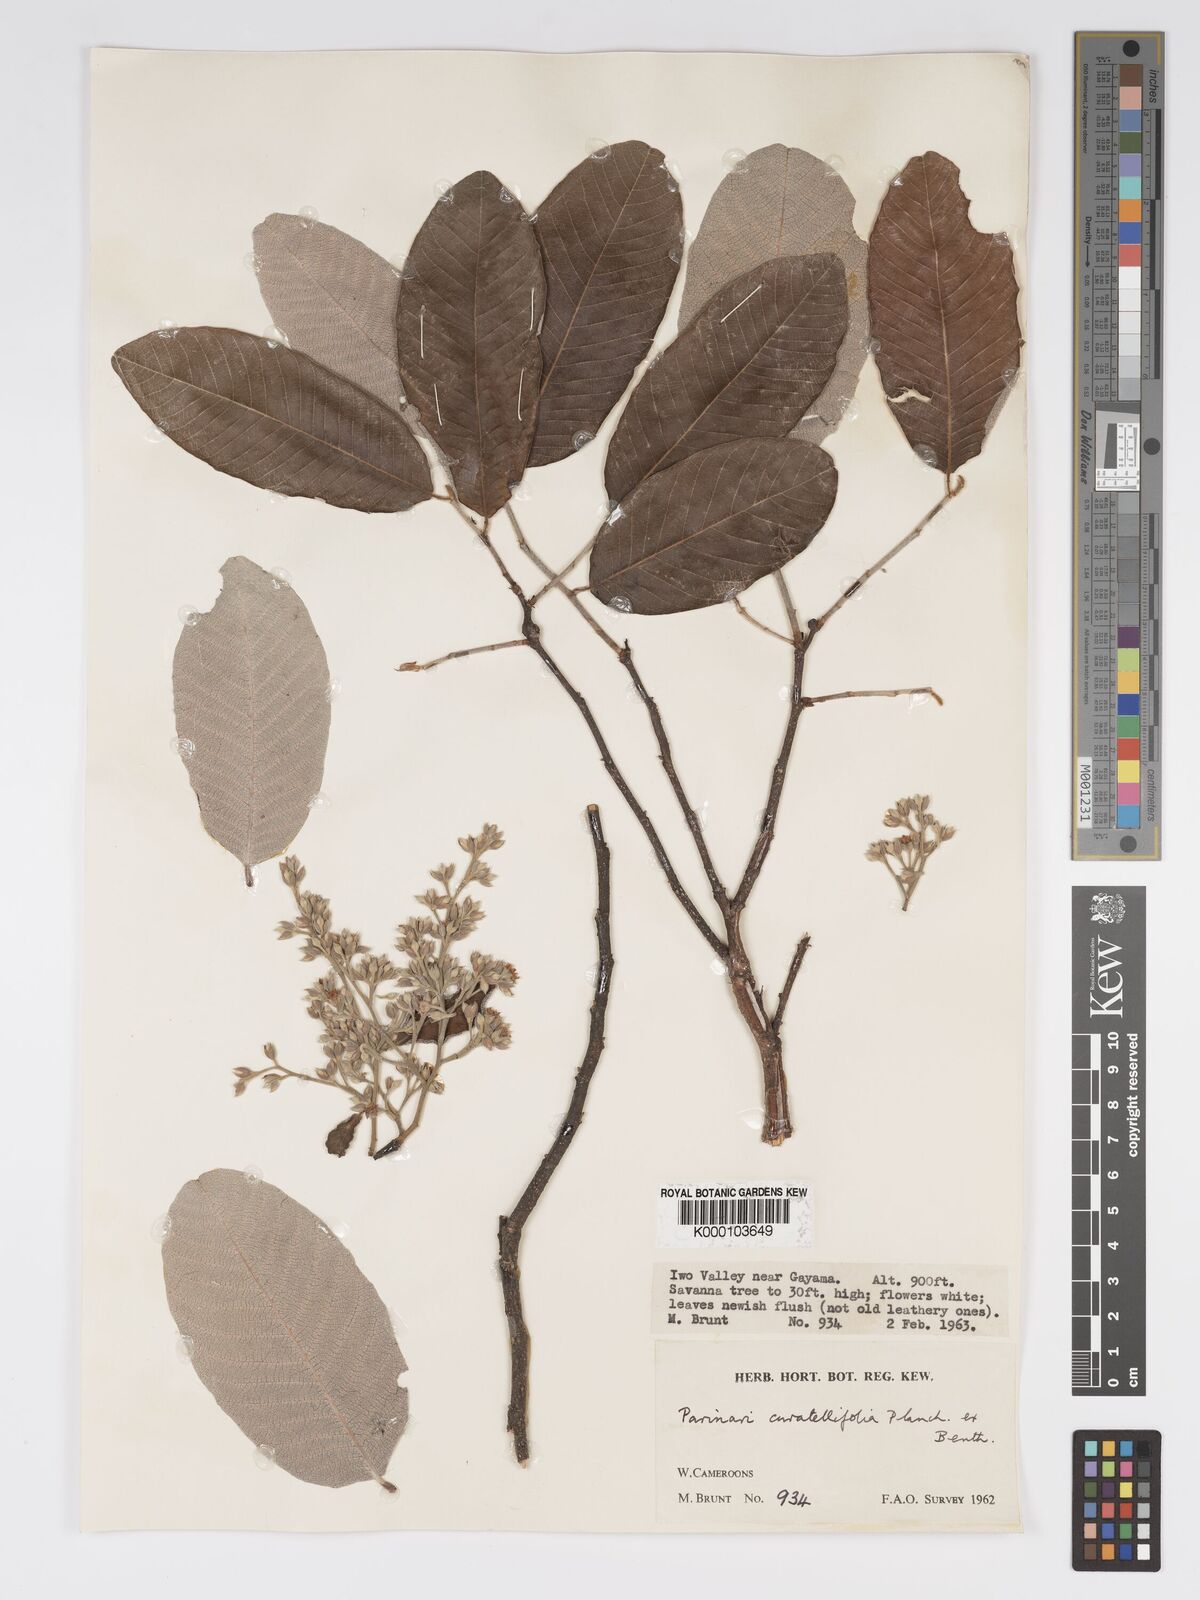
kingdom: Plantae
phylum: Tracheophyta
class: Magnoliopsida
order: Malpighiales
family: Chrysobalanaceae
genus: Parinari
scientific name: Parinari curatellifolia
